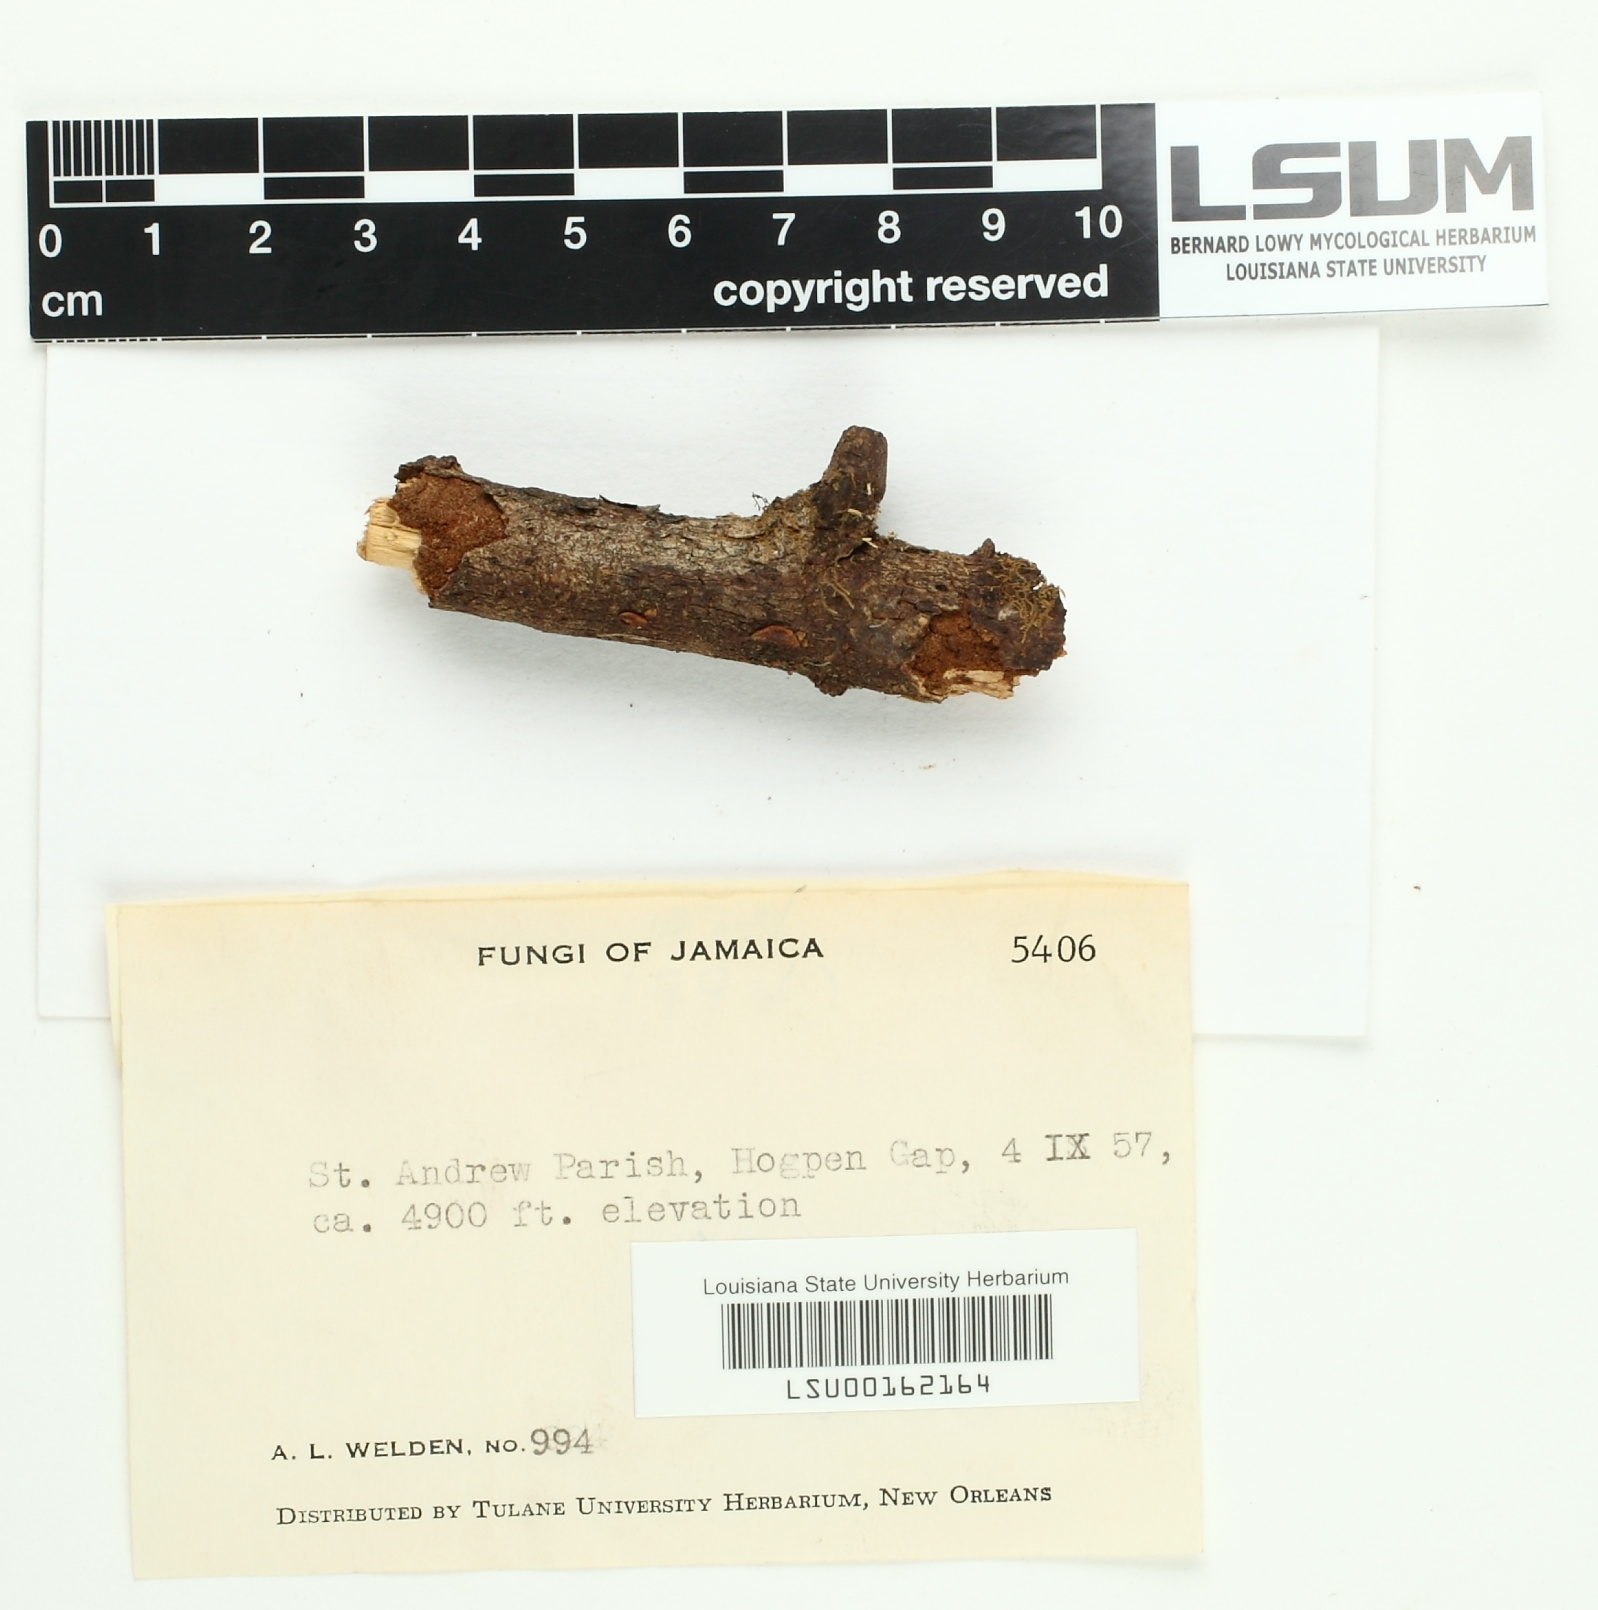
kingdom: Fungi
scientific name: Fungi
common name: Fungi
